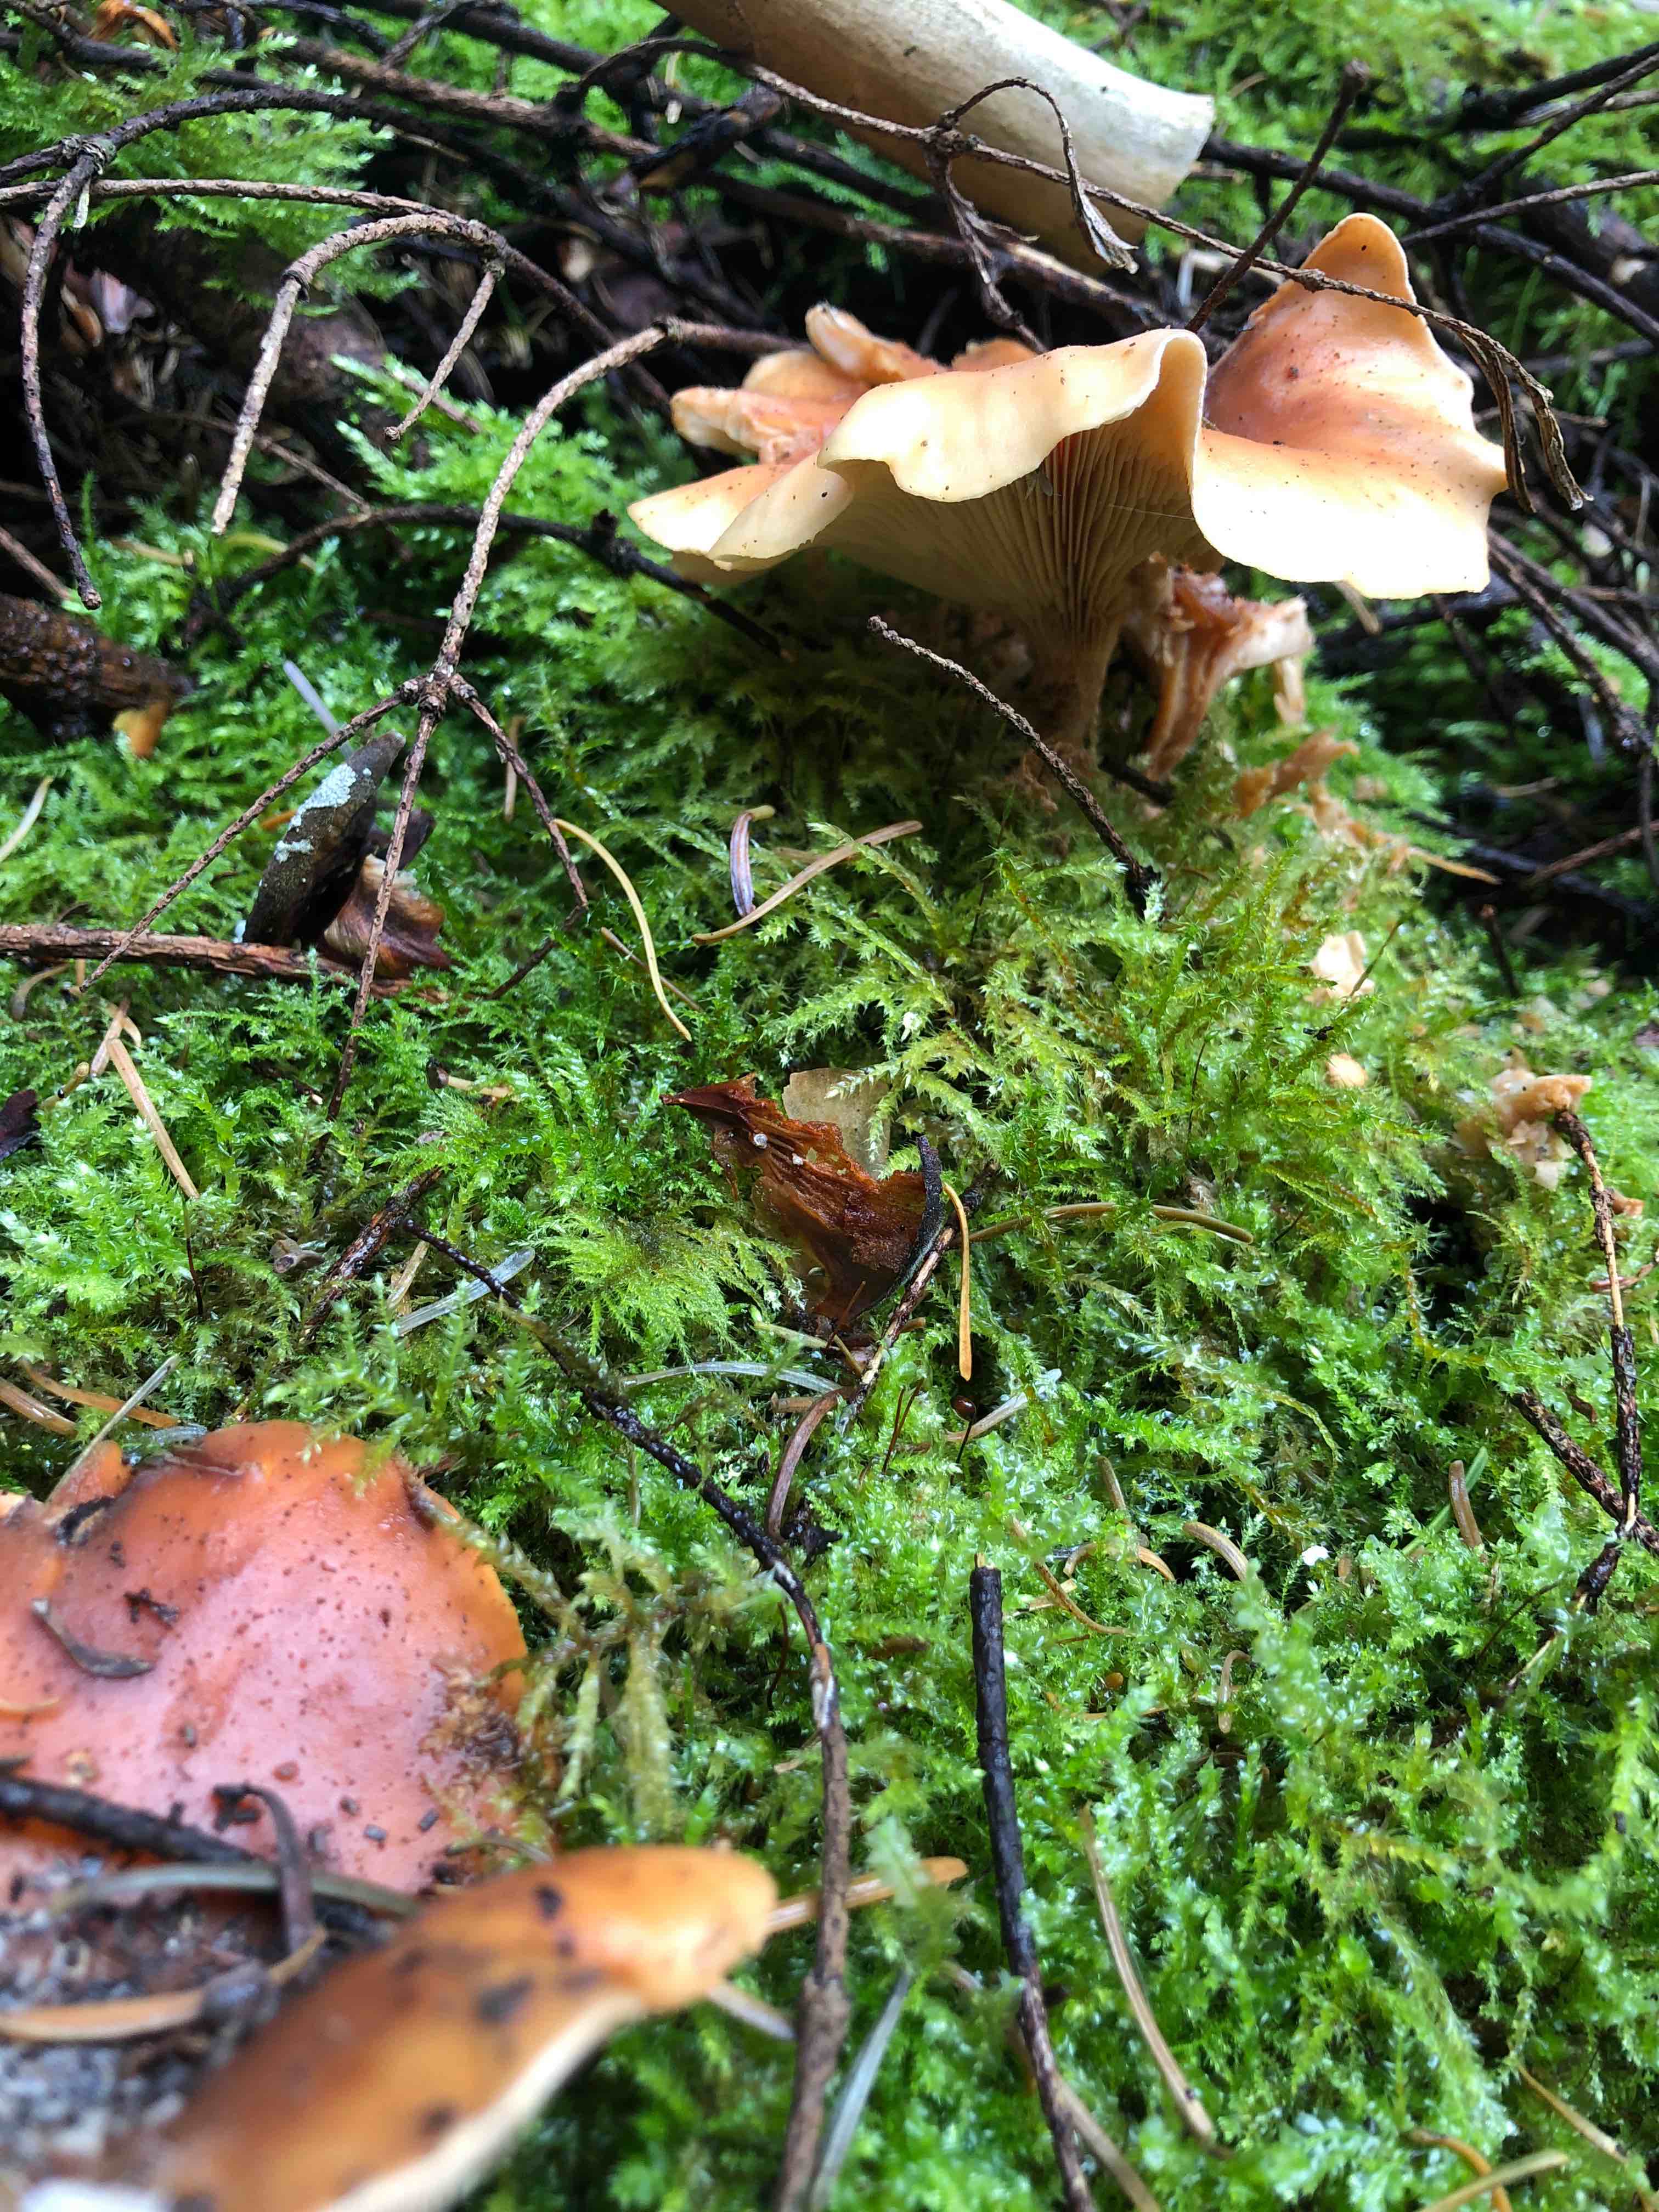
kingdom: Fungi
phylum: Basidiomycota
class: Agaricomycetes
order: Agaricales
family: Tricholomataceae
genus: Paralepista
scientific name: Paralepista flaccida
